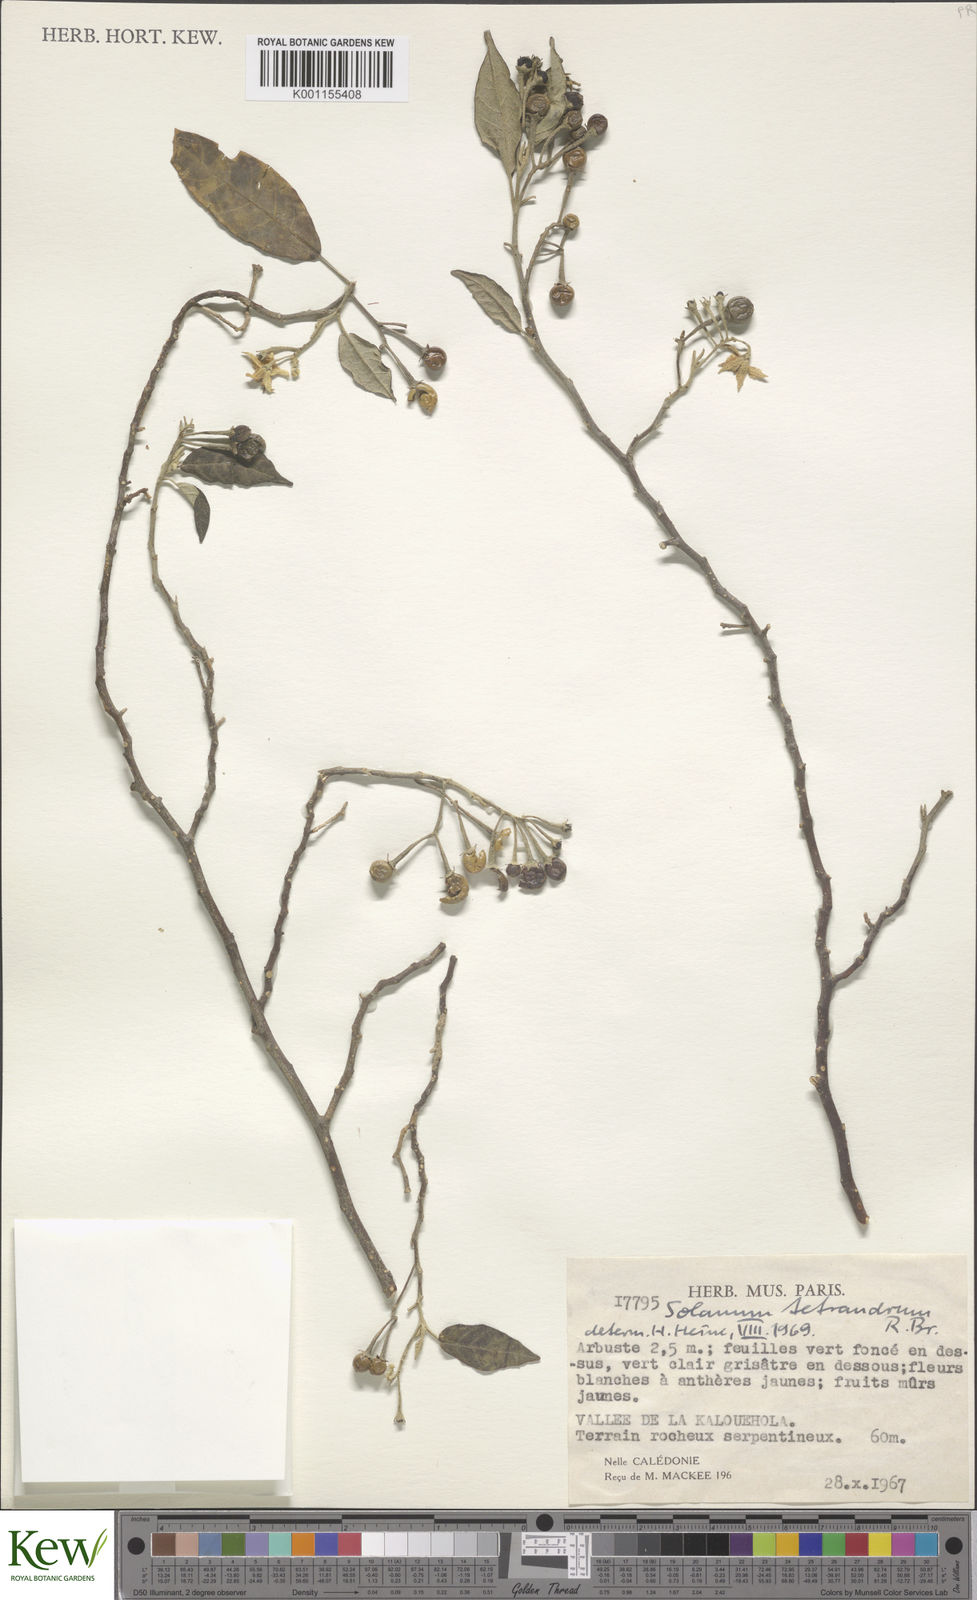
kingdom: Plantae
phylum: Tracheophyta
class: Magnoliopsida
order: Solanales
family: Solanaceae
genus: Solanum
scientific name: Solanum tetrandrum
